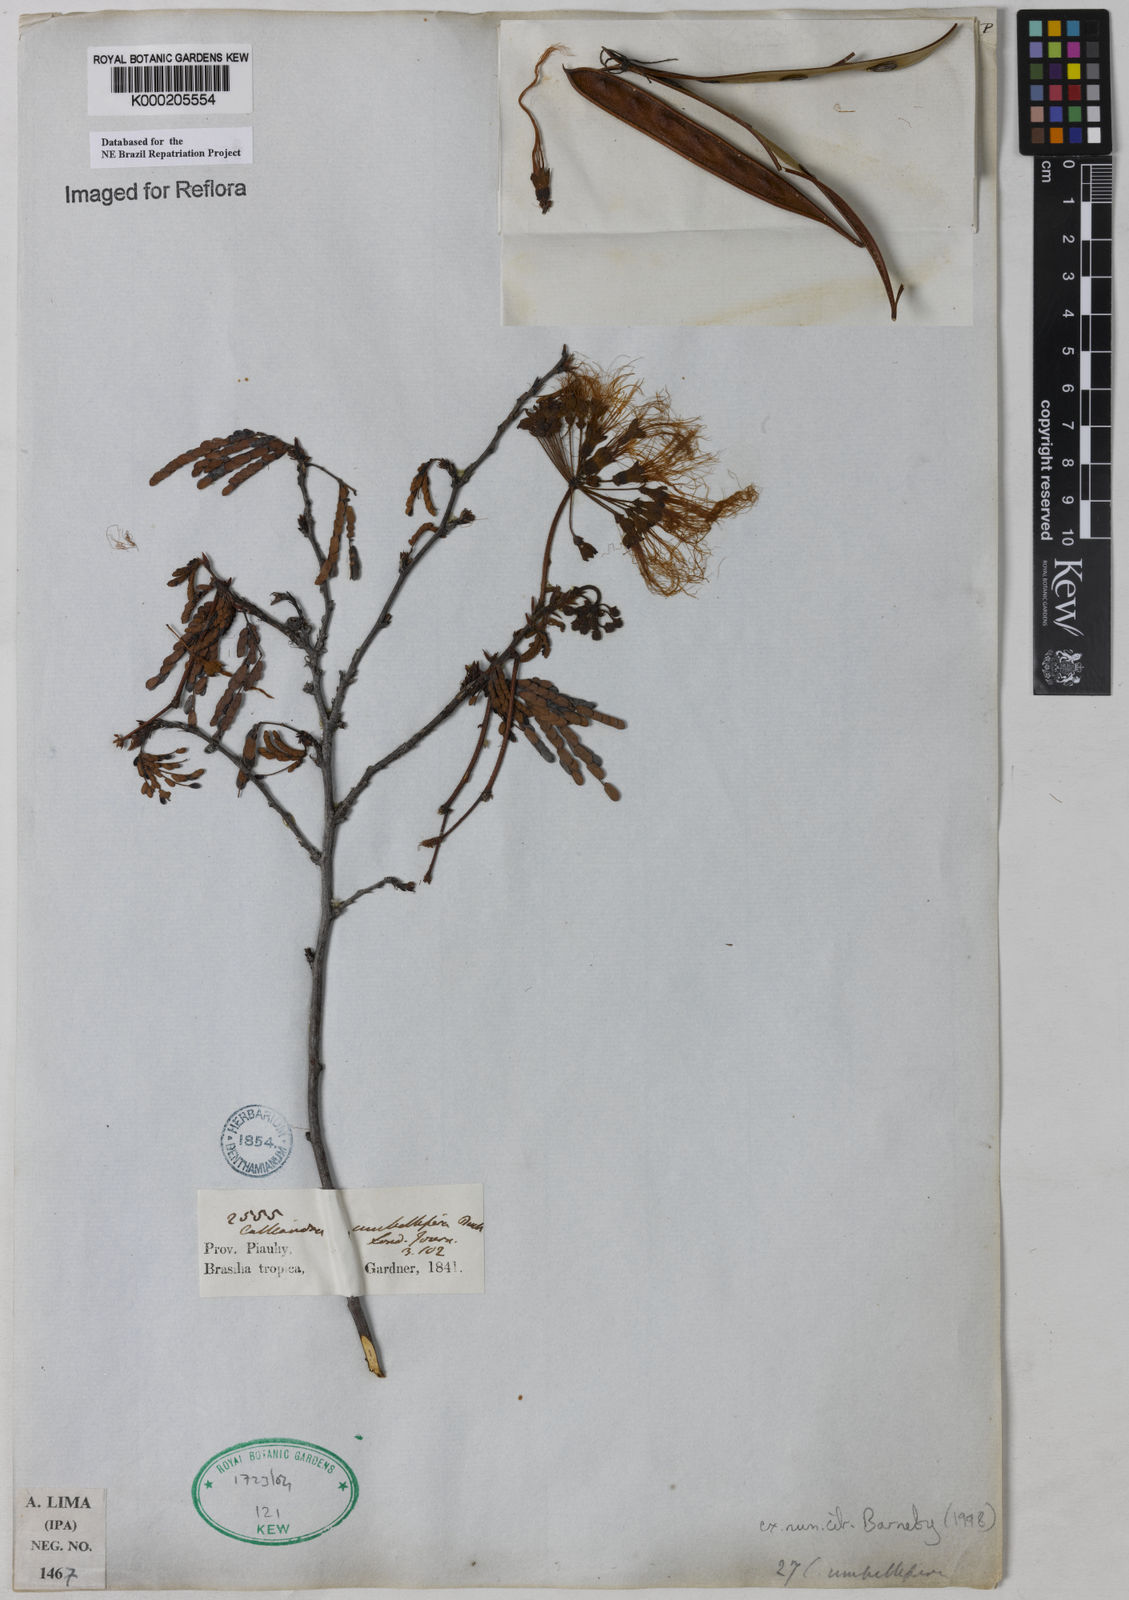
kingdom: Plantae
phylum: Tracheophyta
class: Magnoliopsida
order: Fabales
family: Fabaceae
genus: Calliandra
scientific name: Calliandra umbellifera
